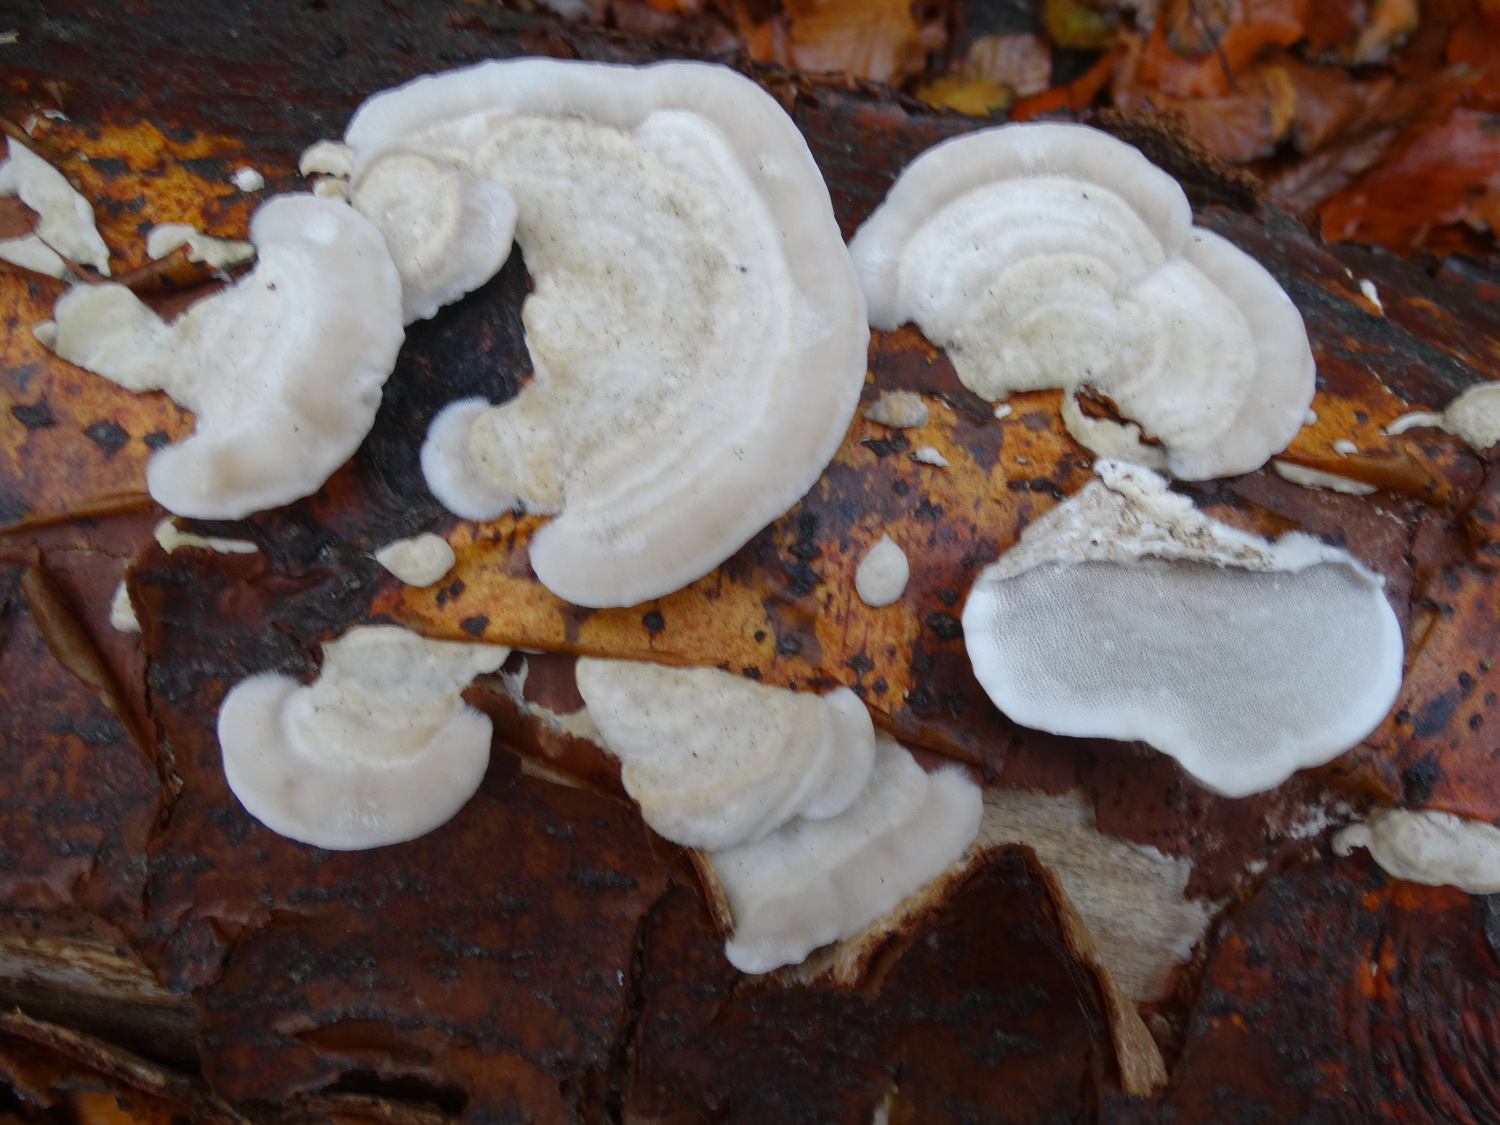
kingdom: Fungi
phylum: Basidiomycota
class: Agaricomycetes
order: Polyporales
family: Polyporaceae
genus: Trametes
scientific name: Trametes hirsuta
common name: håret læderporesvamp
